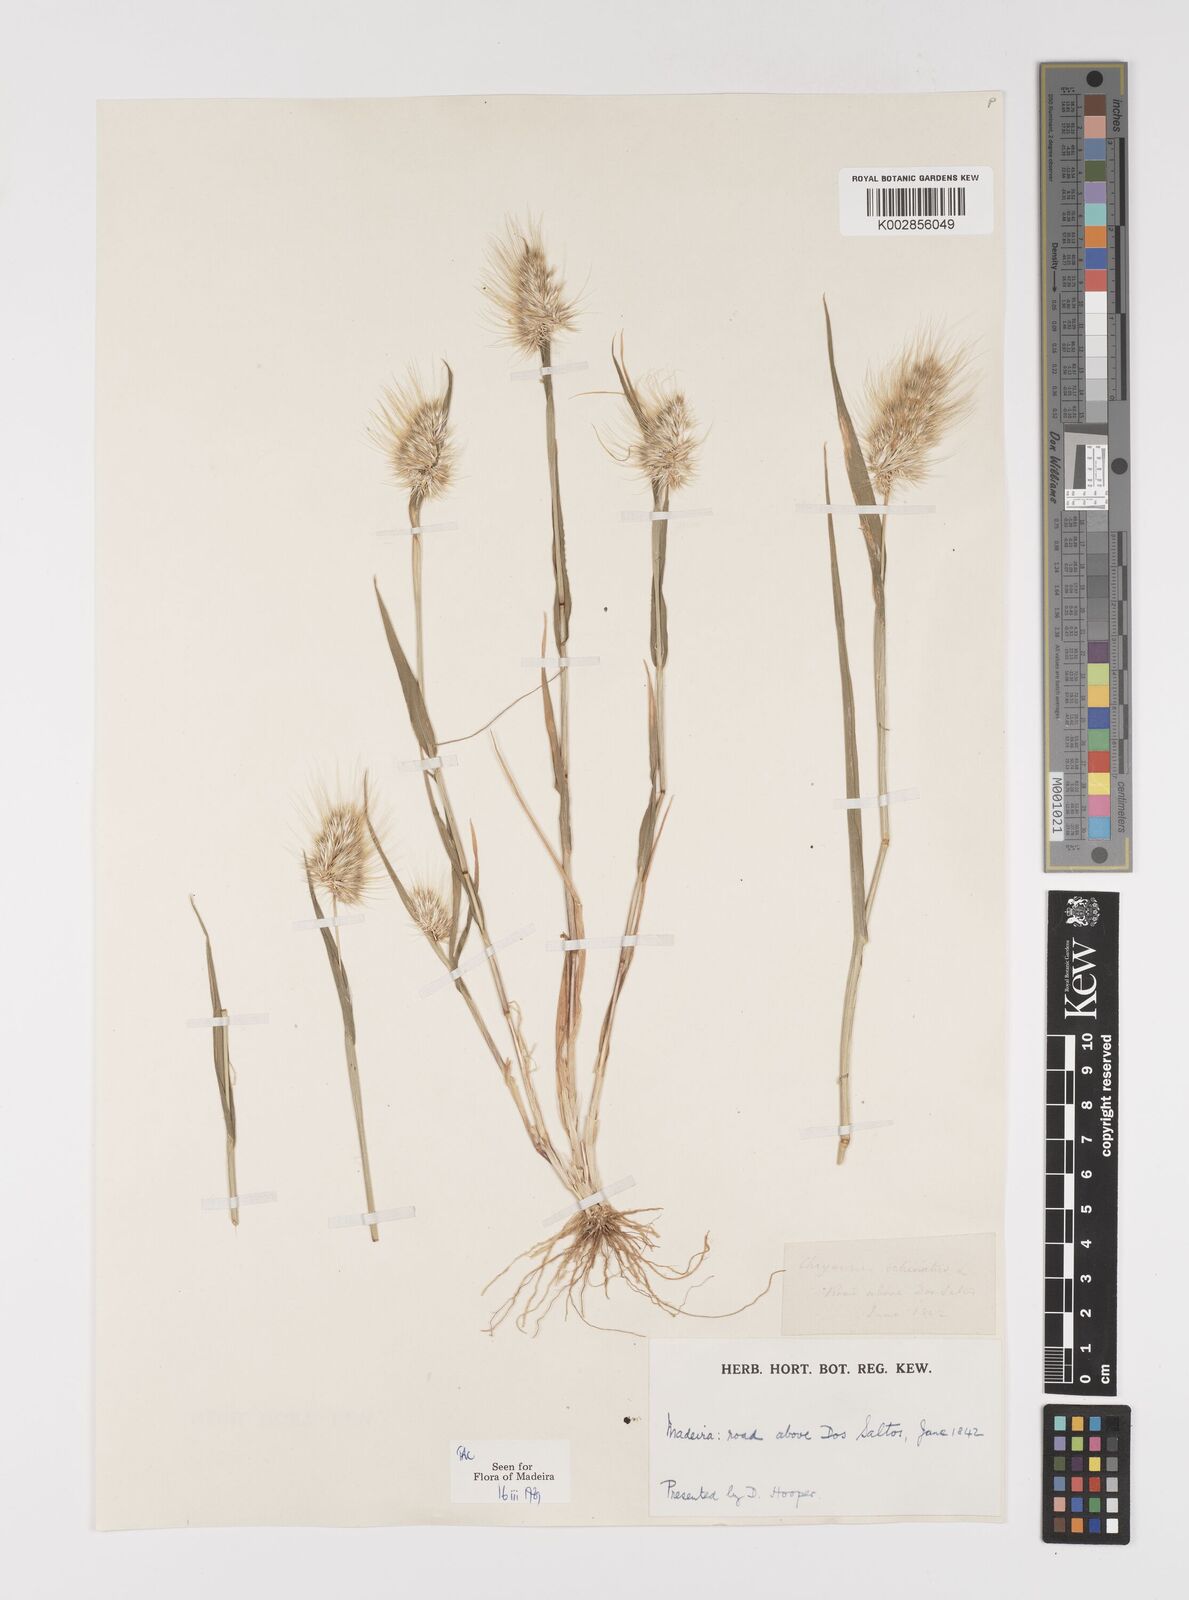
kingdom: Plantae
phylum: Tracheophyta
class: Liliopsida
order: Poales
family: Poaceae
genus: Cynosurus
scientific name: Cynosurus echinatus
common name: Rough dog's-tail
